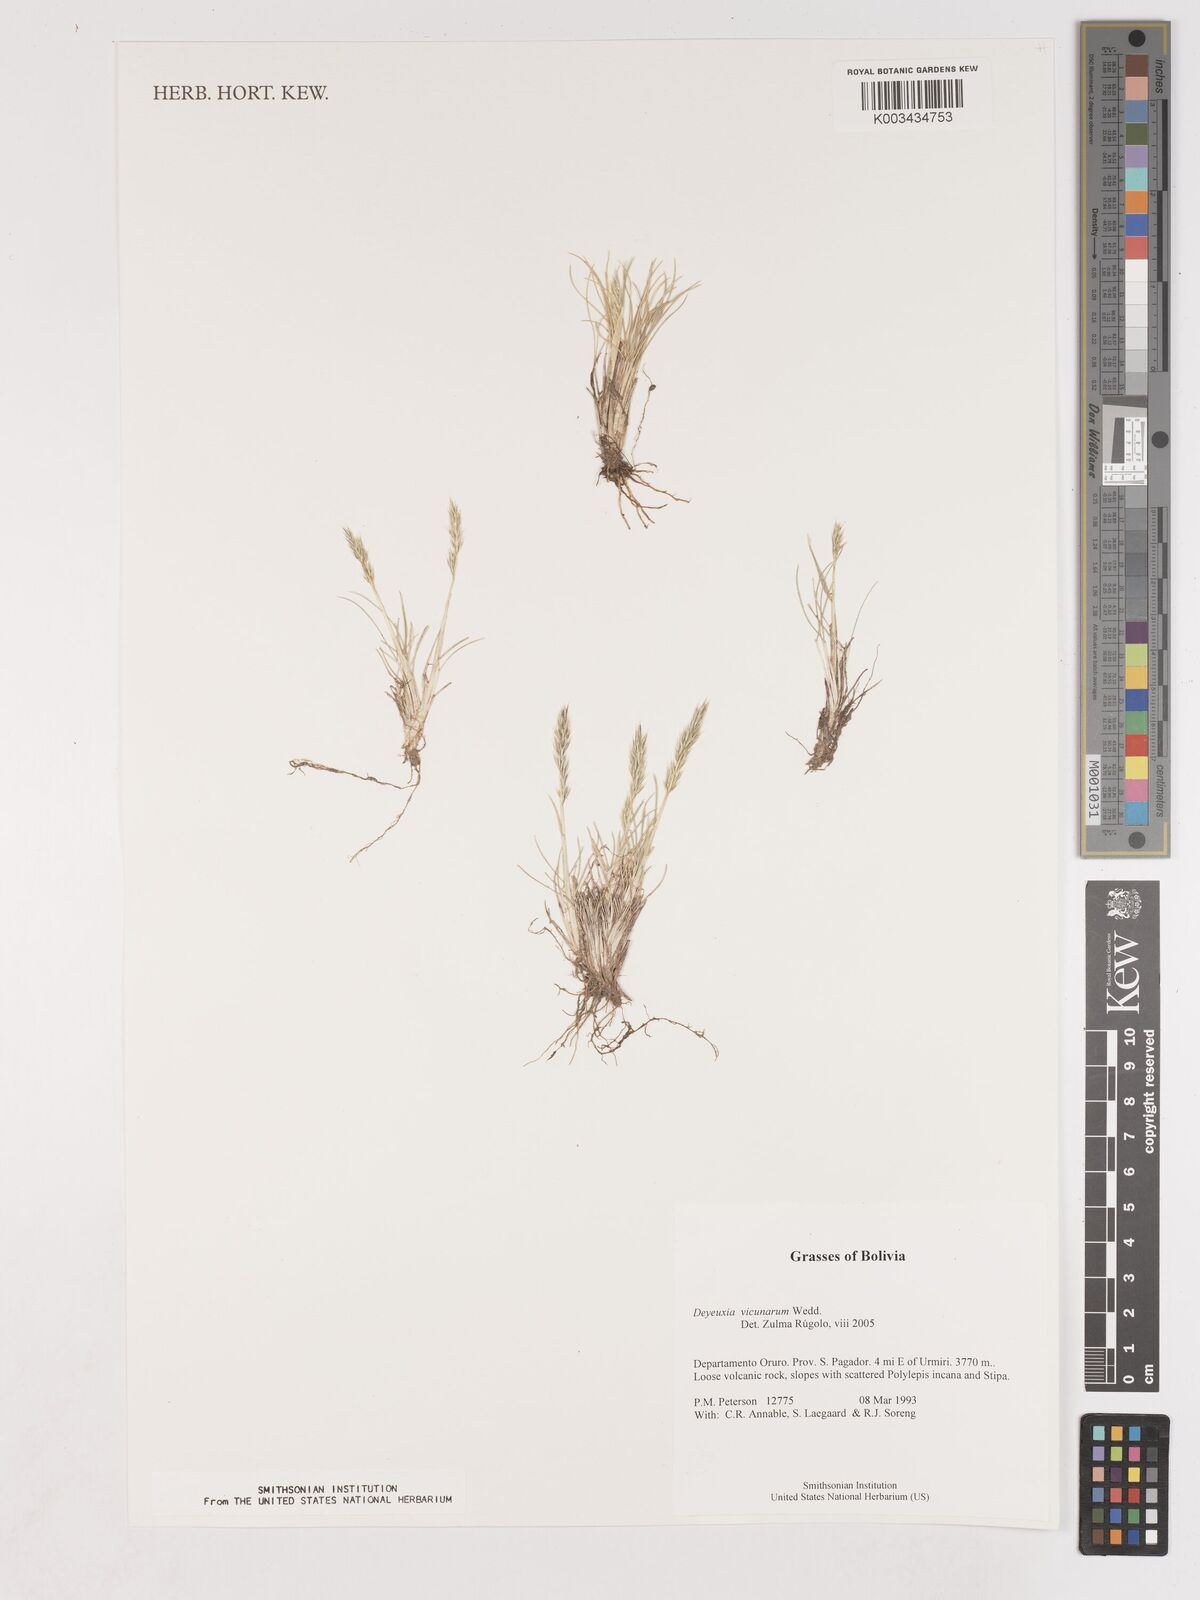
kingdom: Plantae
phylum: Tracheophyta
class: Liliopsida
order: Poales
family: Poaceae
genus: Cinnagrostis
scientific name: Cinnagrostis vicunarum
